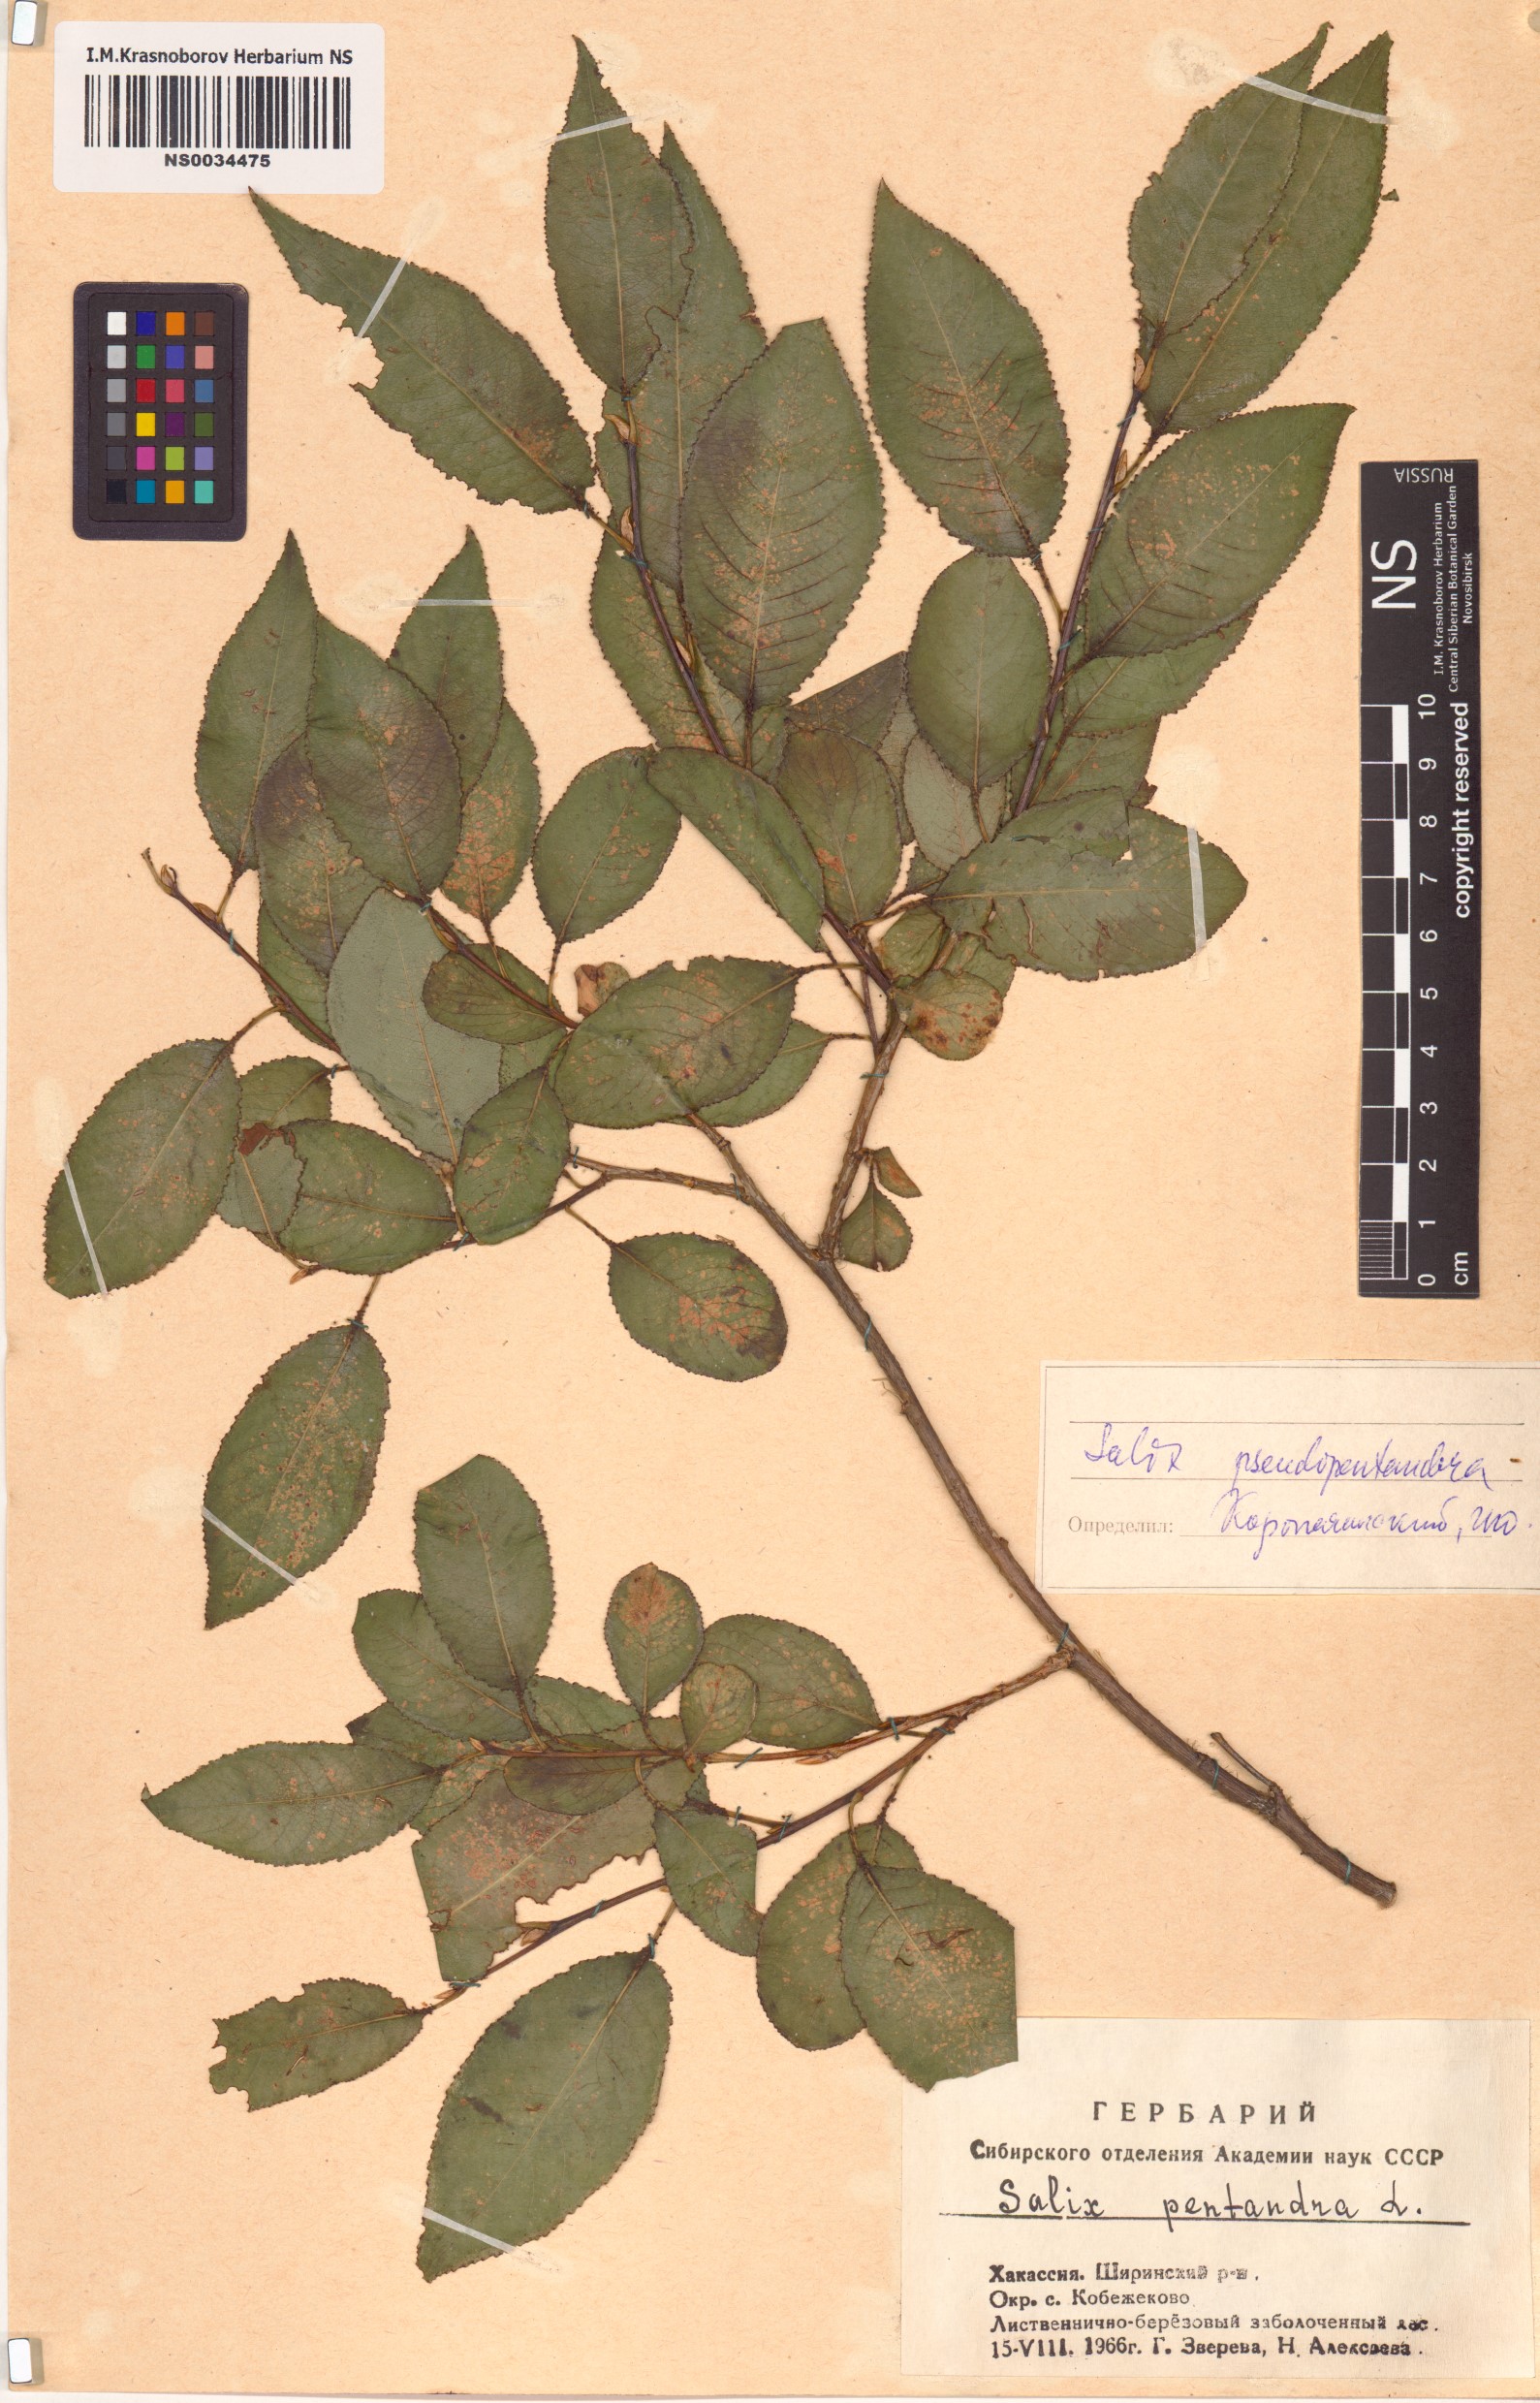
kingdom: Plantae
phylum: Tracheophyta
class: Magnoliopsida
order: Malpighiales
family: Salicaceae
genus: Salix
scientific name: Salix pseudopentandra
